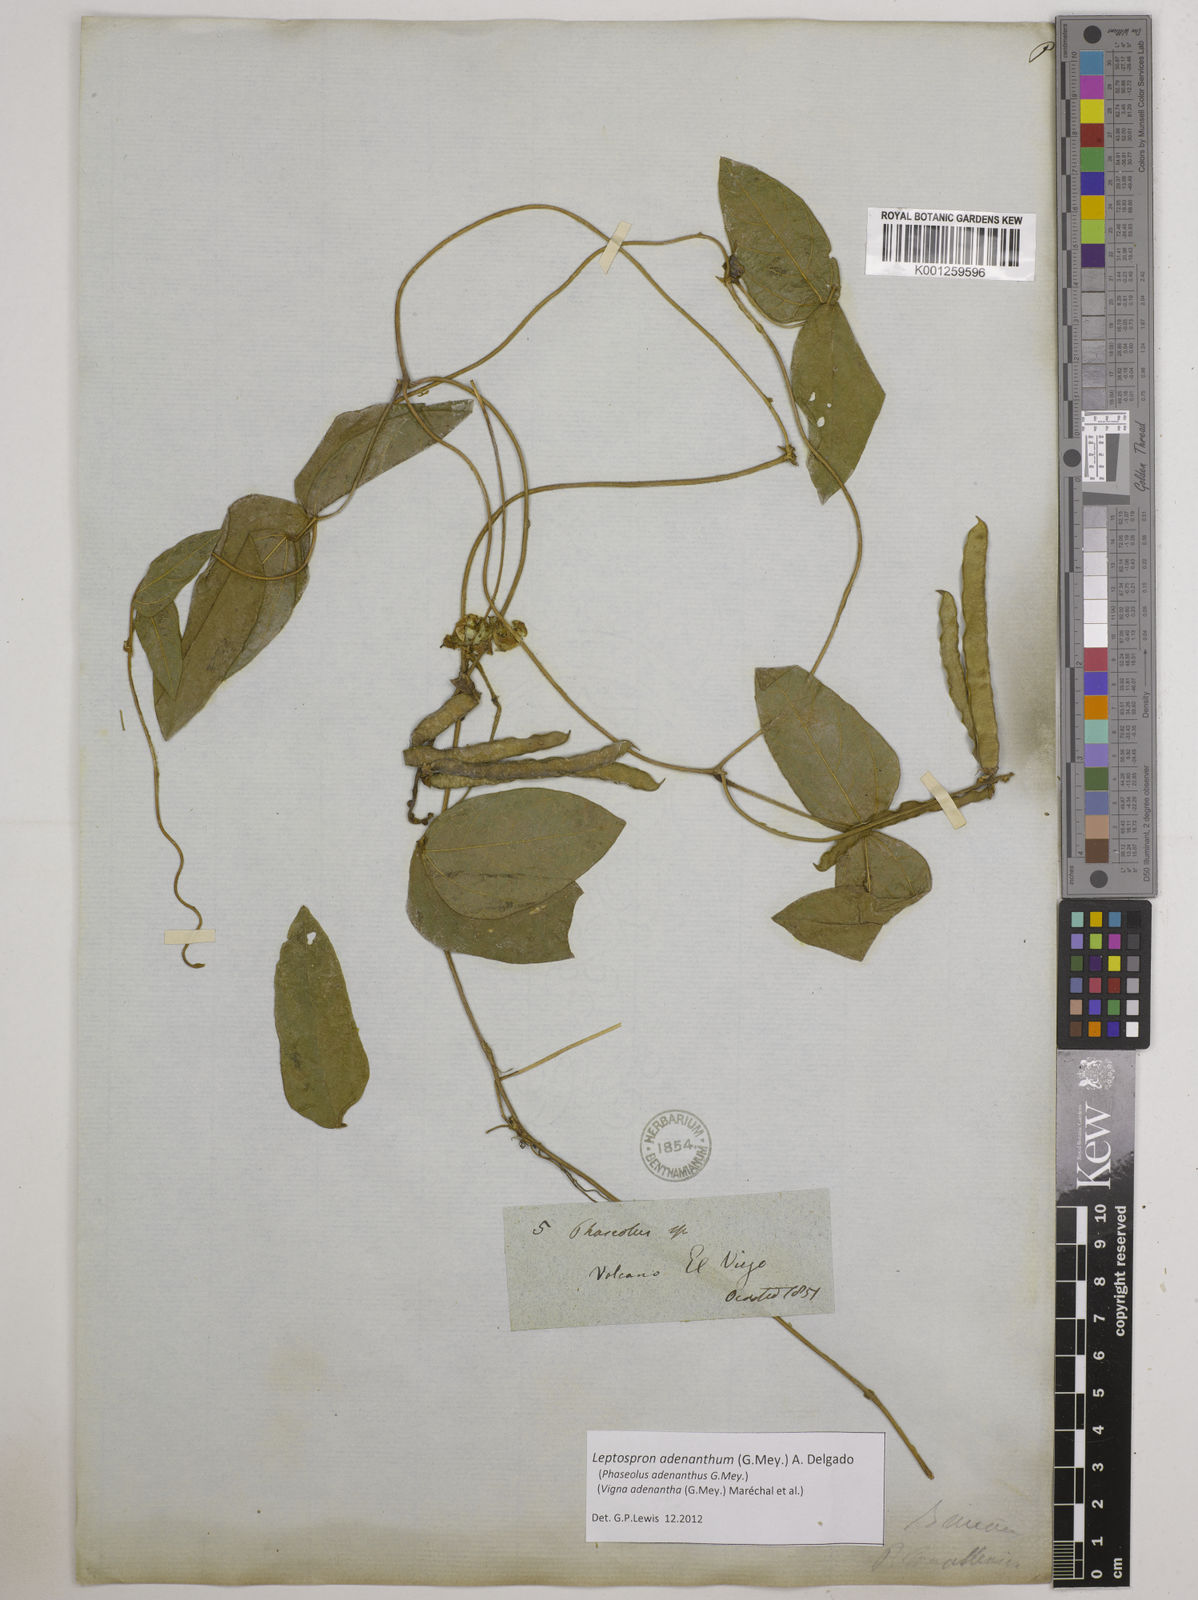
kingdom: Plantae
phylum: Tracheophyta
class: Magnoliopsida
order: Fabales
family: Fabaceae
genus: Leptospron
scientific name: Leptospron adenanthum
